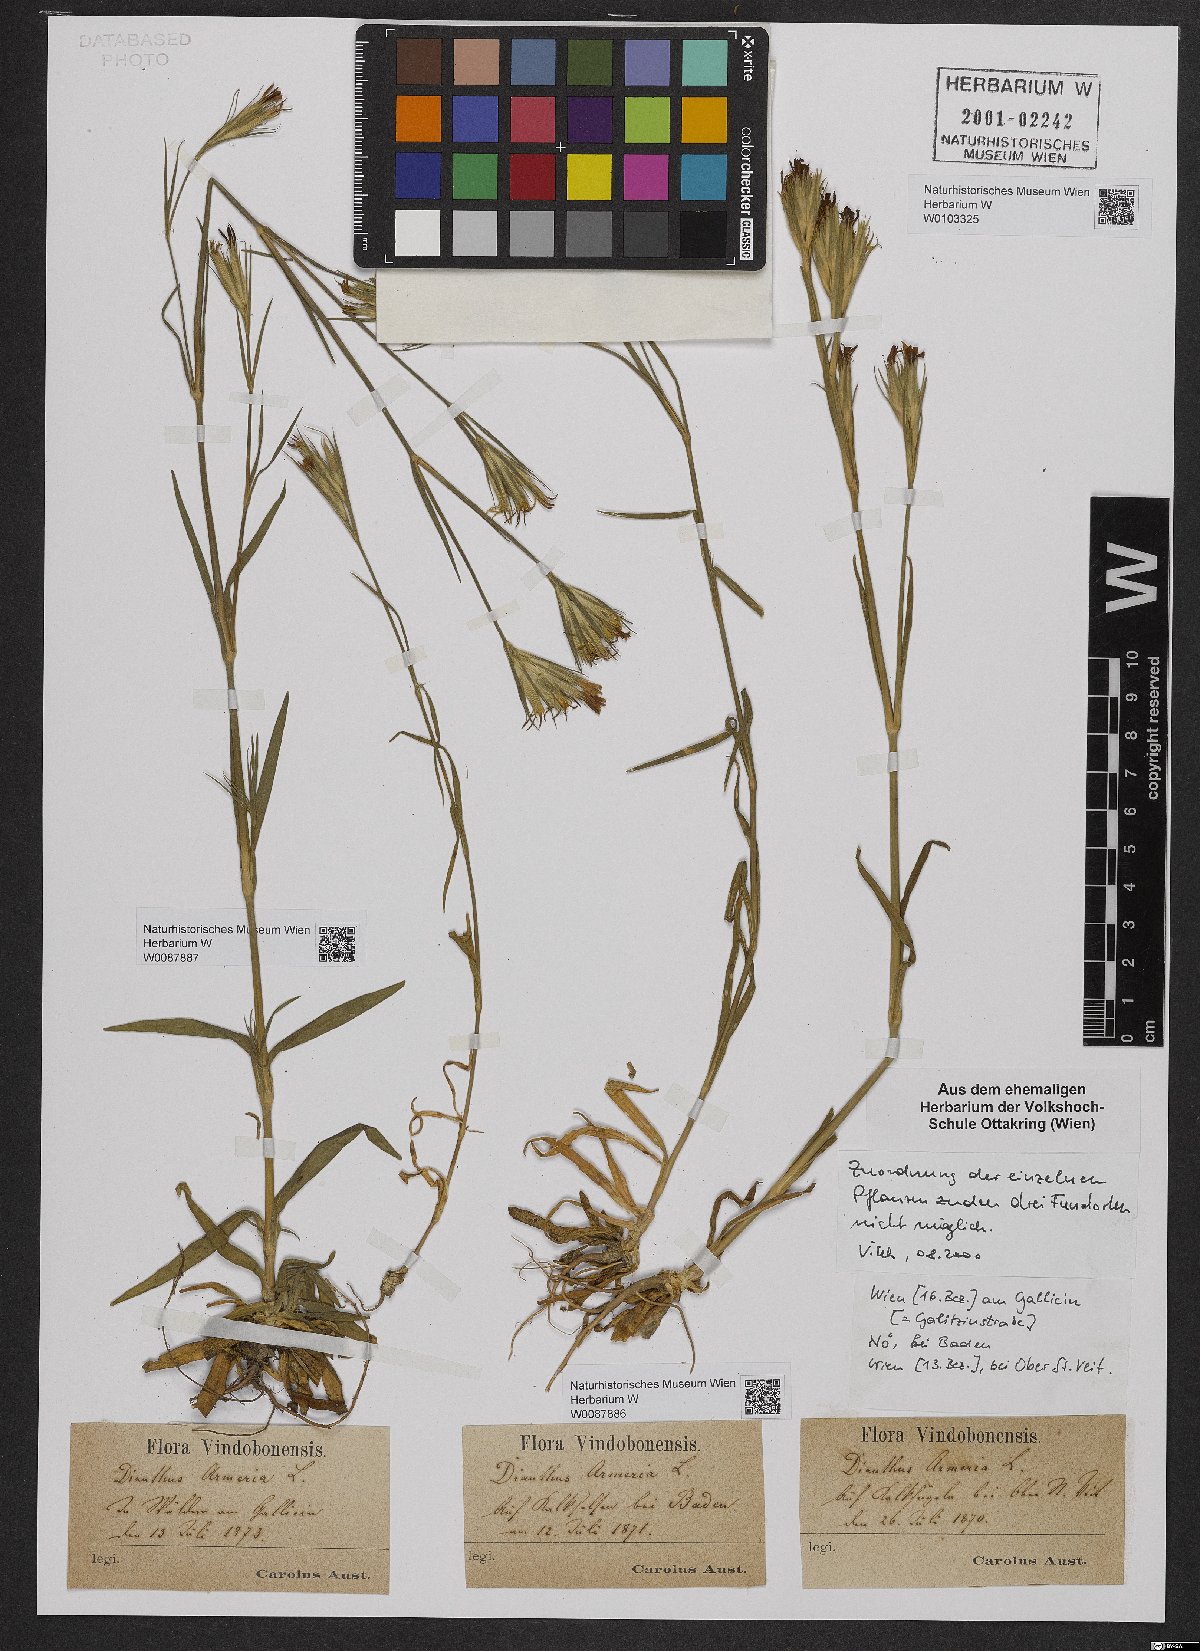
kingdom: Plantae
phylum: Tracheophyta
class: Magnoliopsida
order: Caryophyllales
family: Caryophyllaceae
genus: Dianthus
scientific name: Dianthus armeria
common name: Deptford pink
